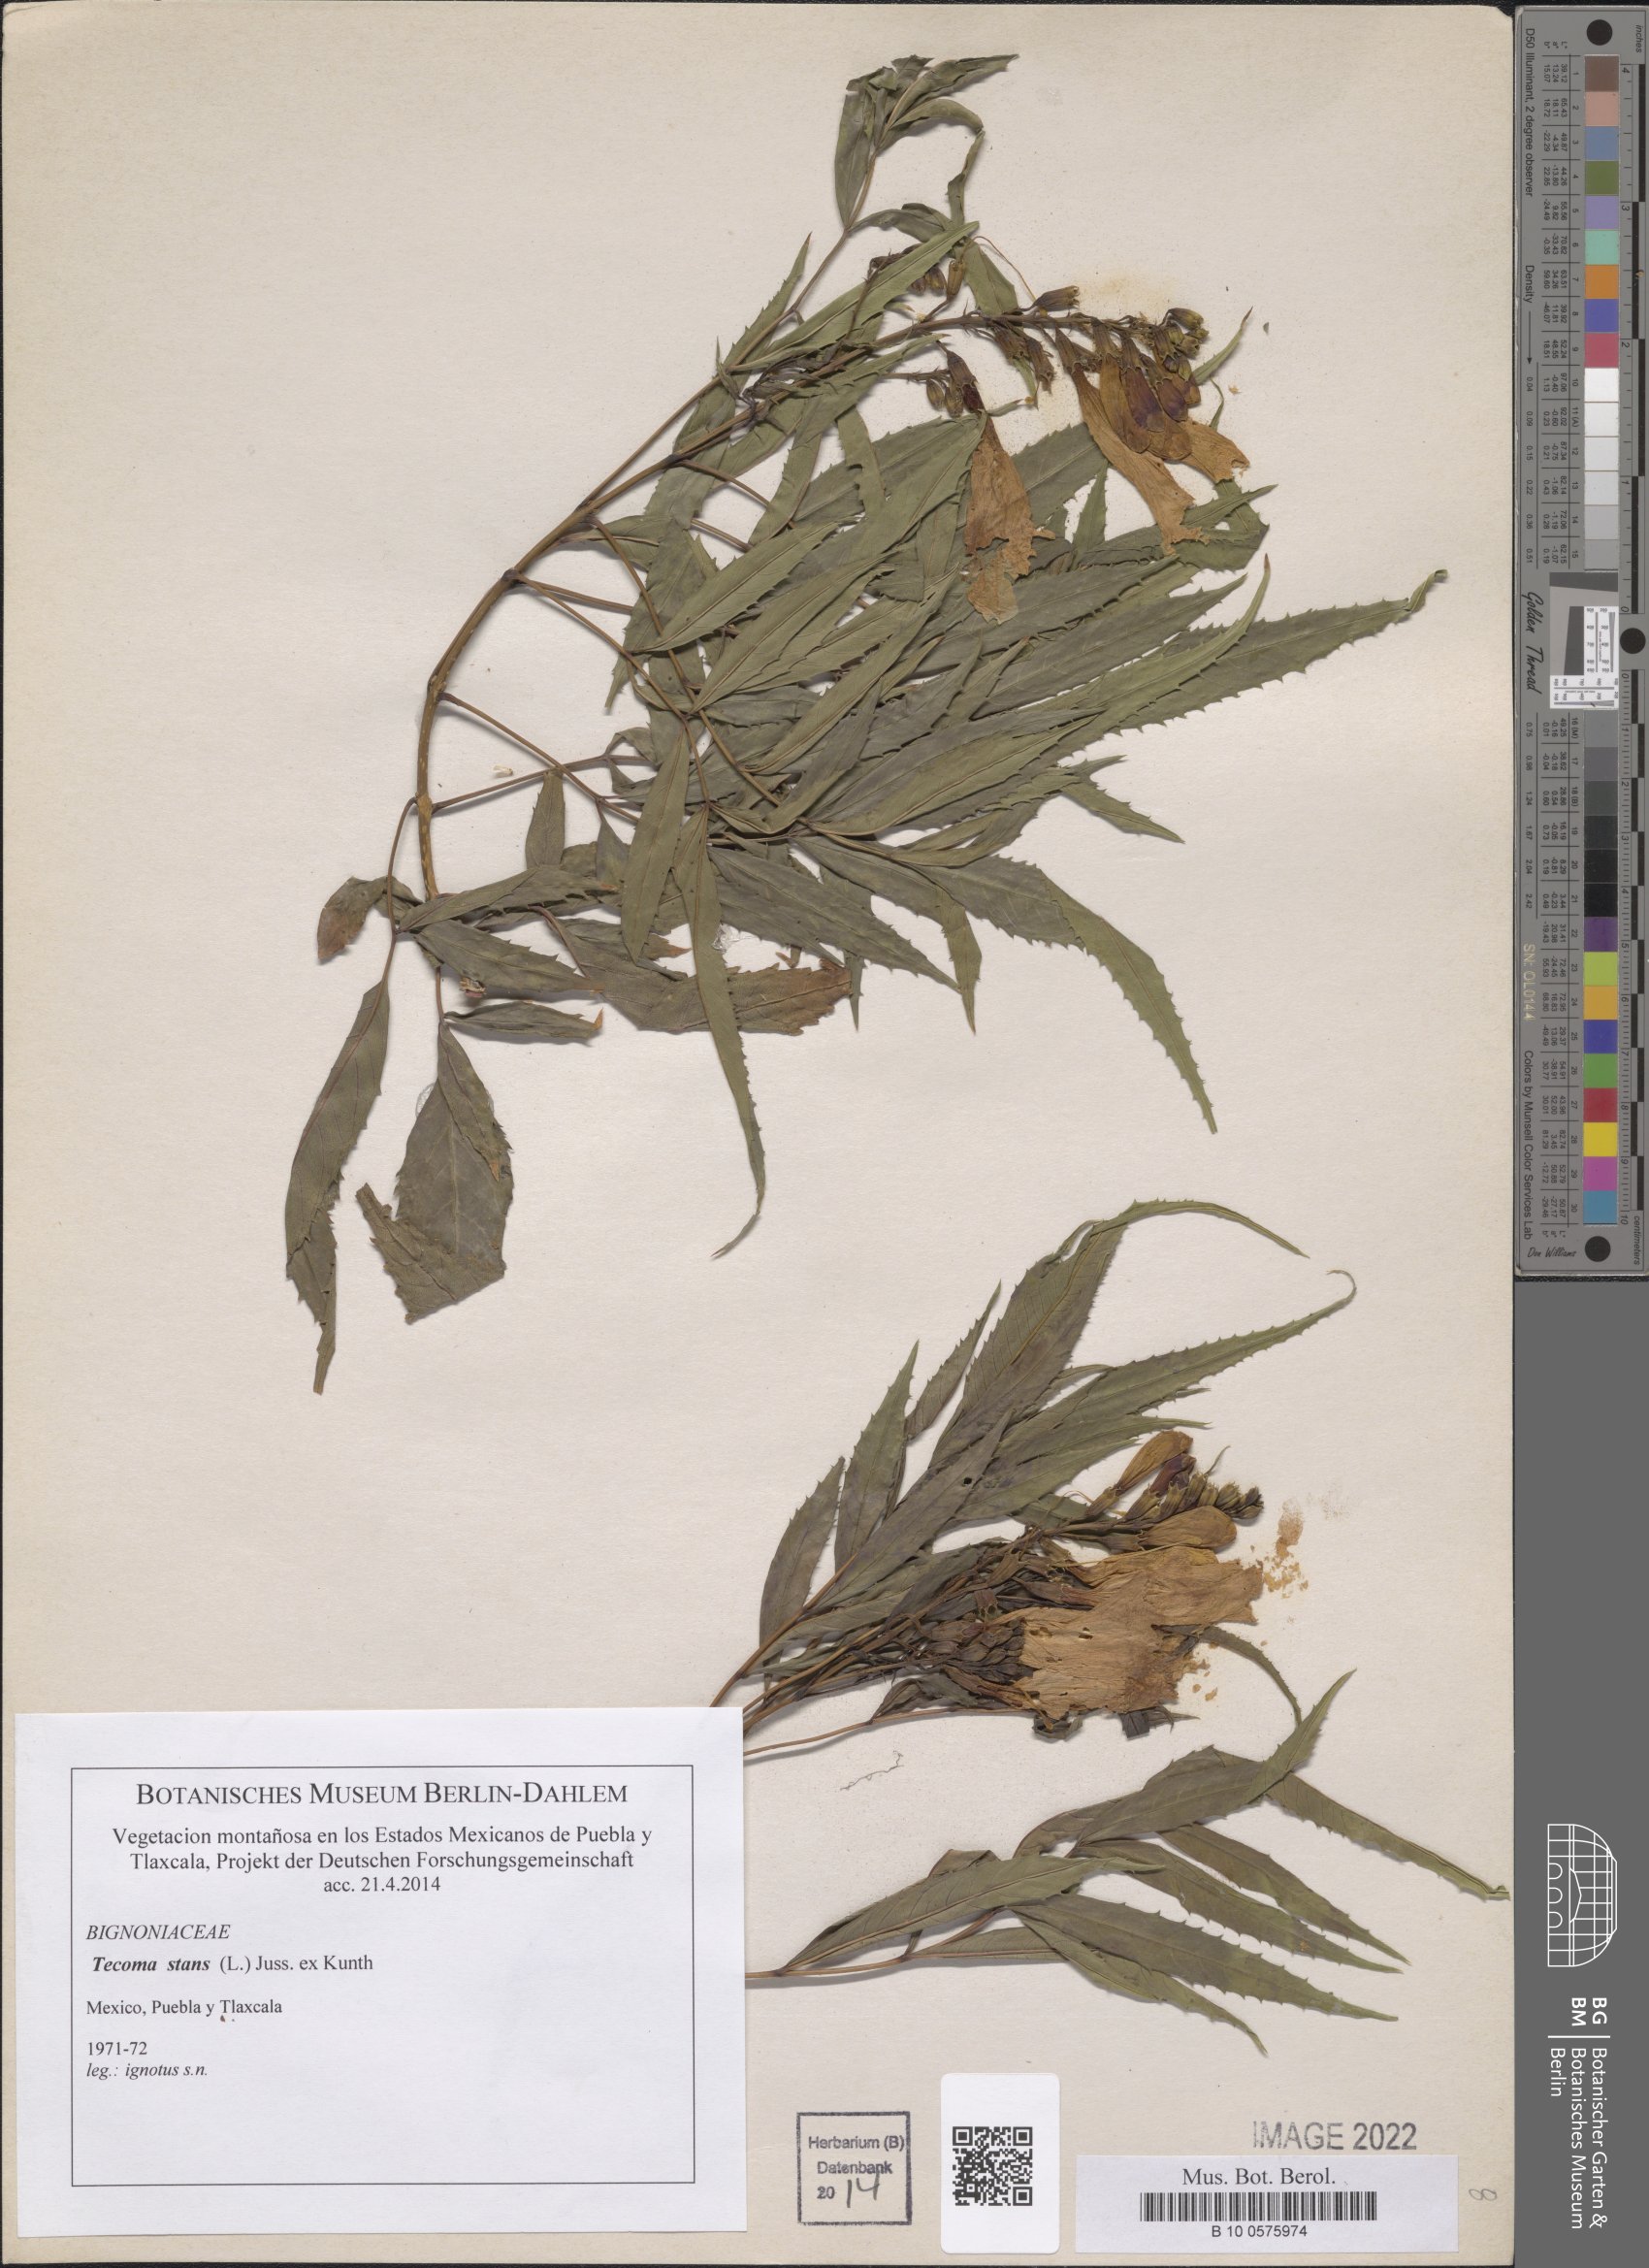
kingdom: Plantae
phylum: Tracheophyta
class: Magnoliopsida
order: Lamiales
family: Bignoniaceae
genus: Tecoma
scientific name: Tecoma stans
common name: Yellow trumpetbush
